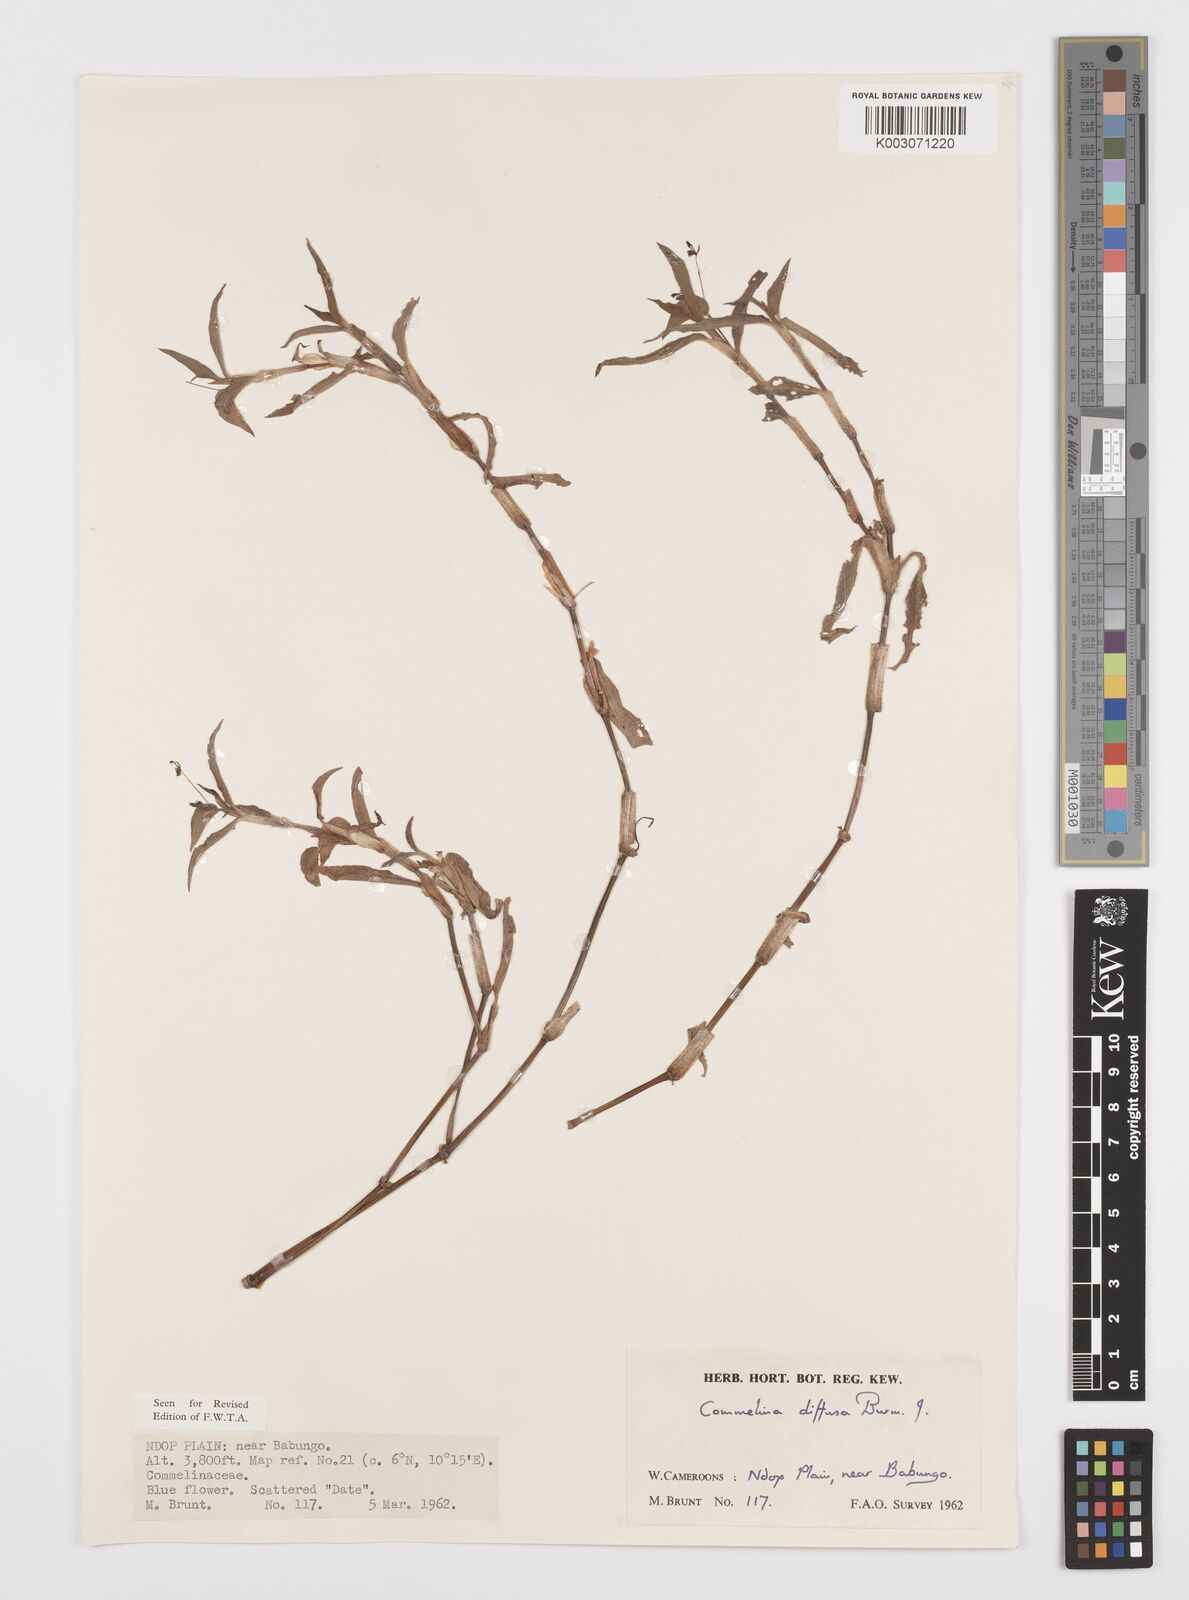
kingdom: Plantae
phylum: Tracheophyta
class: Liliopsida
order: Commelinales
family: Commelinaceae
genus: Commelina
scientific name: Commelina diffusa
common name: Climbing dayflower
